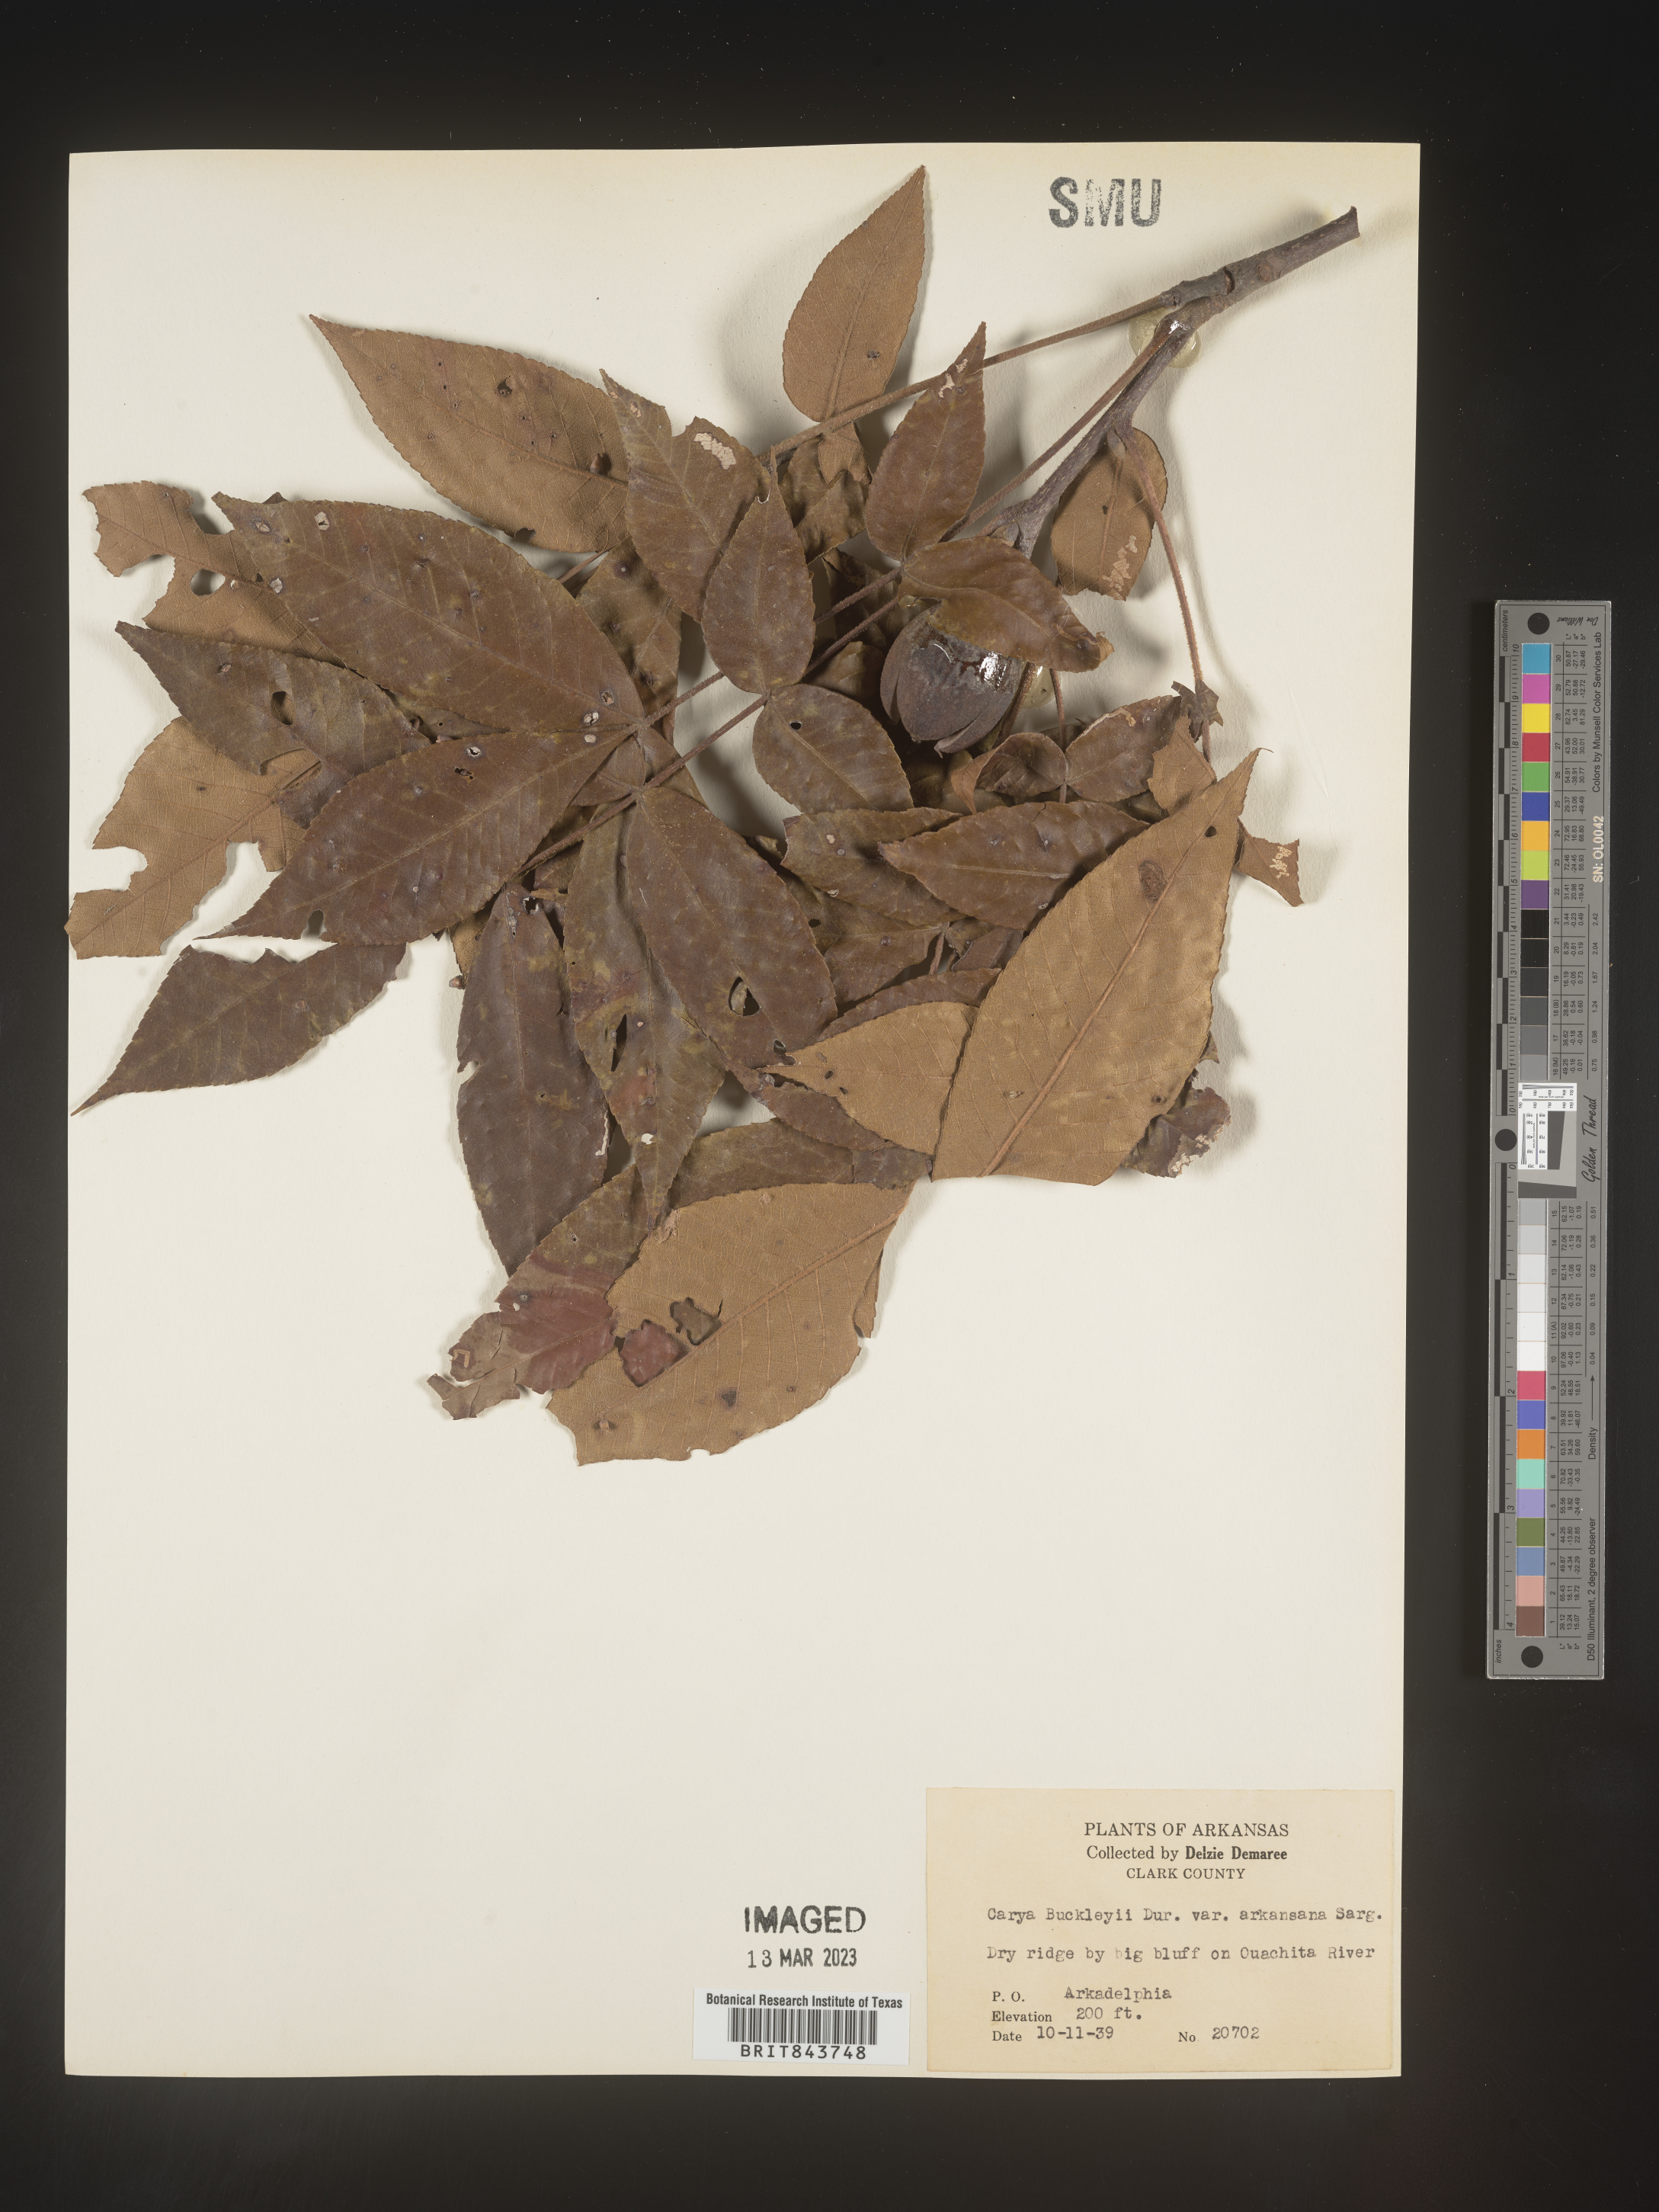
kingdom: Plantae
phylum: Tracheophyta
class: Magnoliopsida
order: Fagales
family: Juglandaceae
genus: Carya
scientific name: Carya texana
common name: Black hickory
